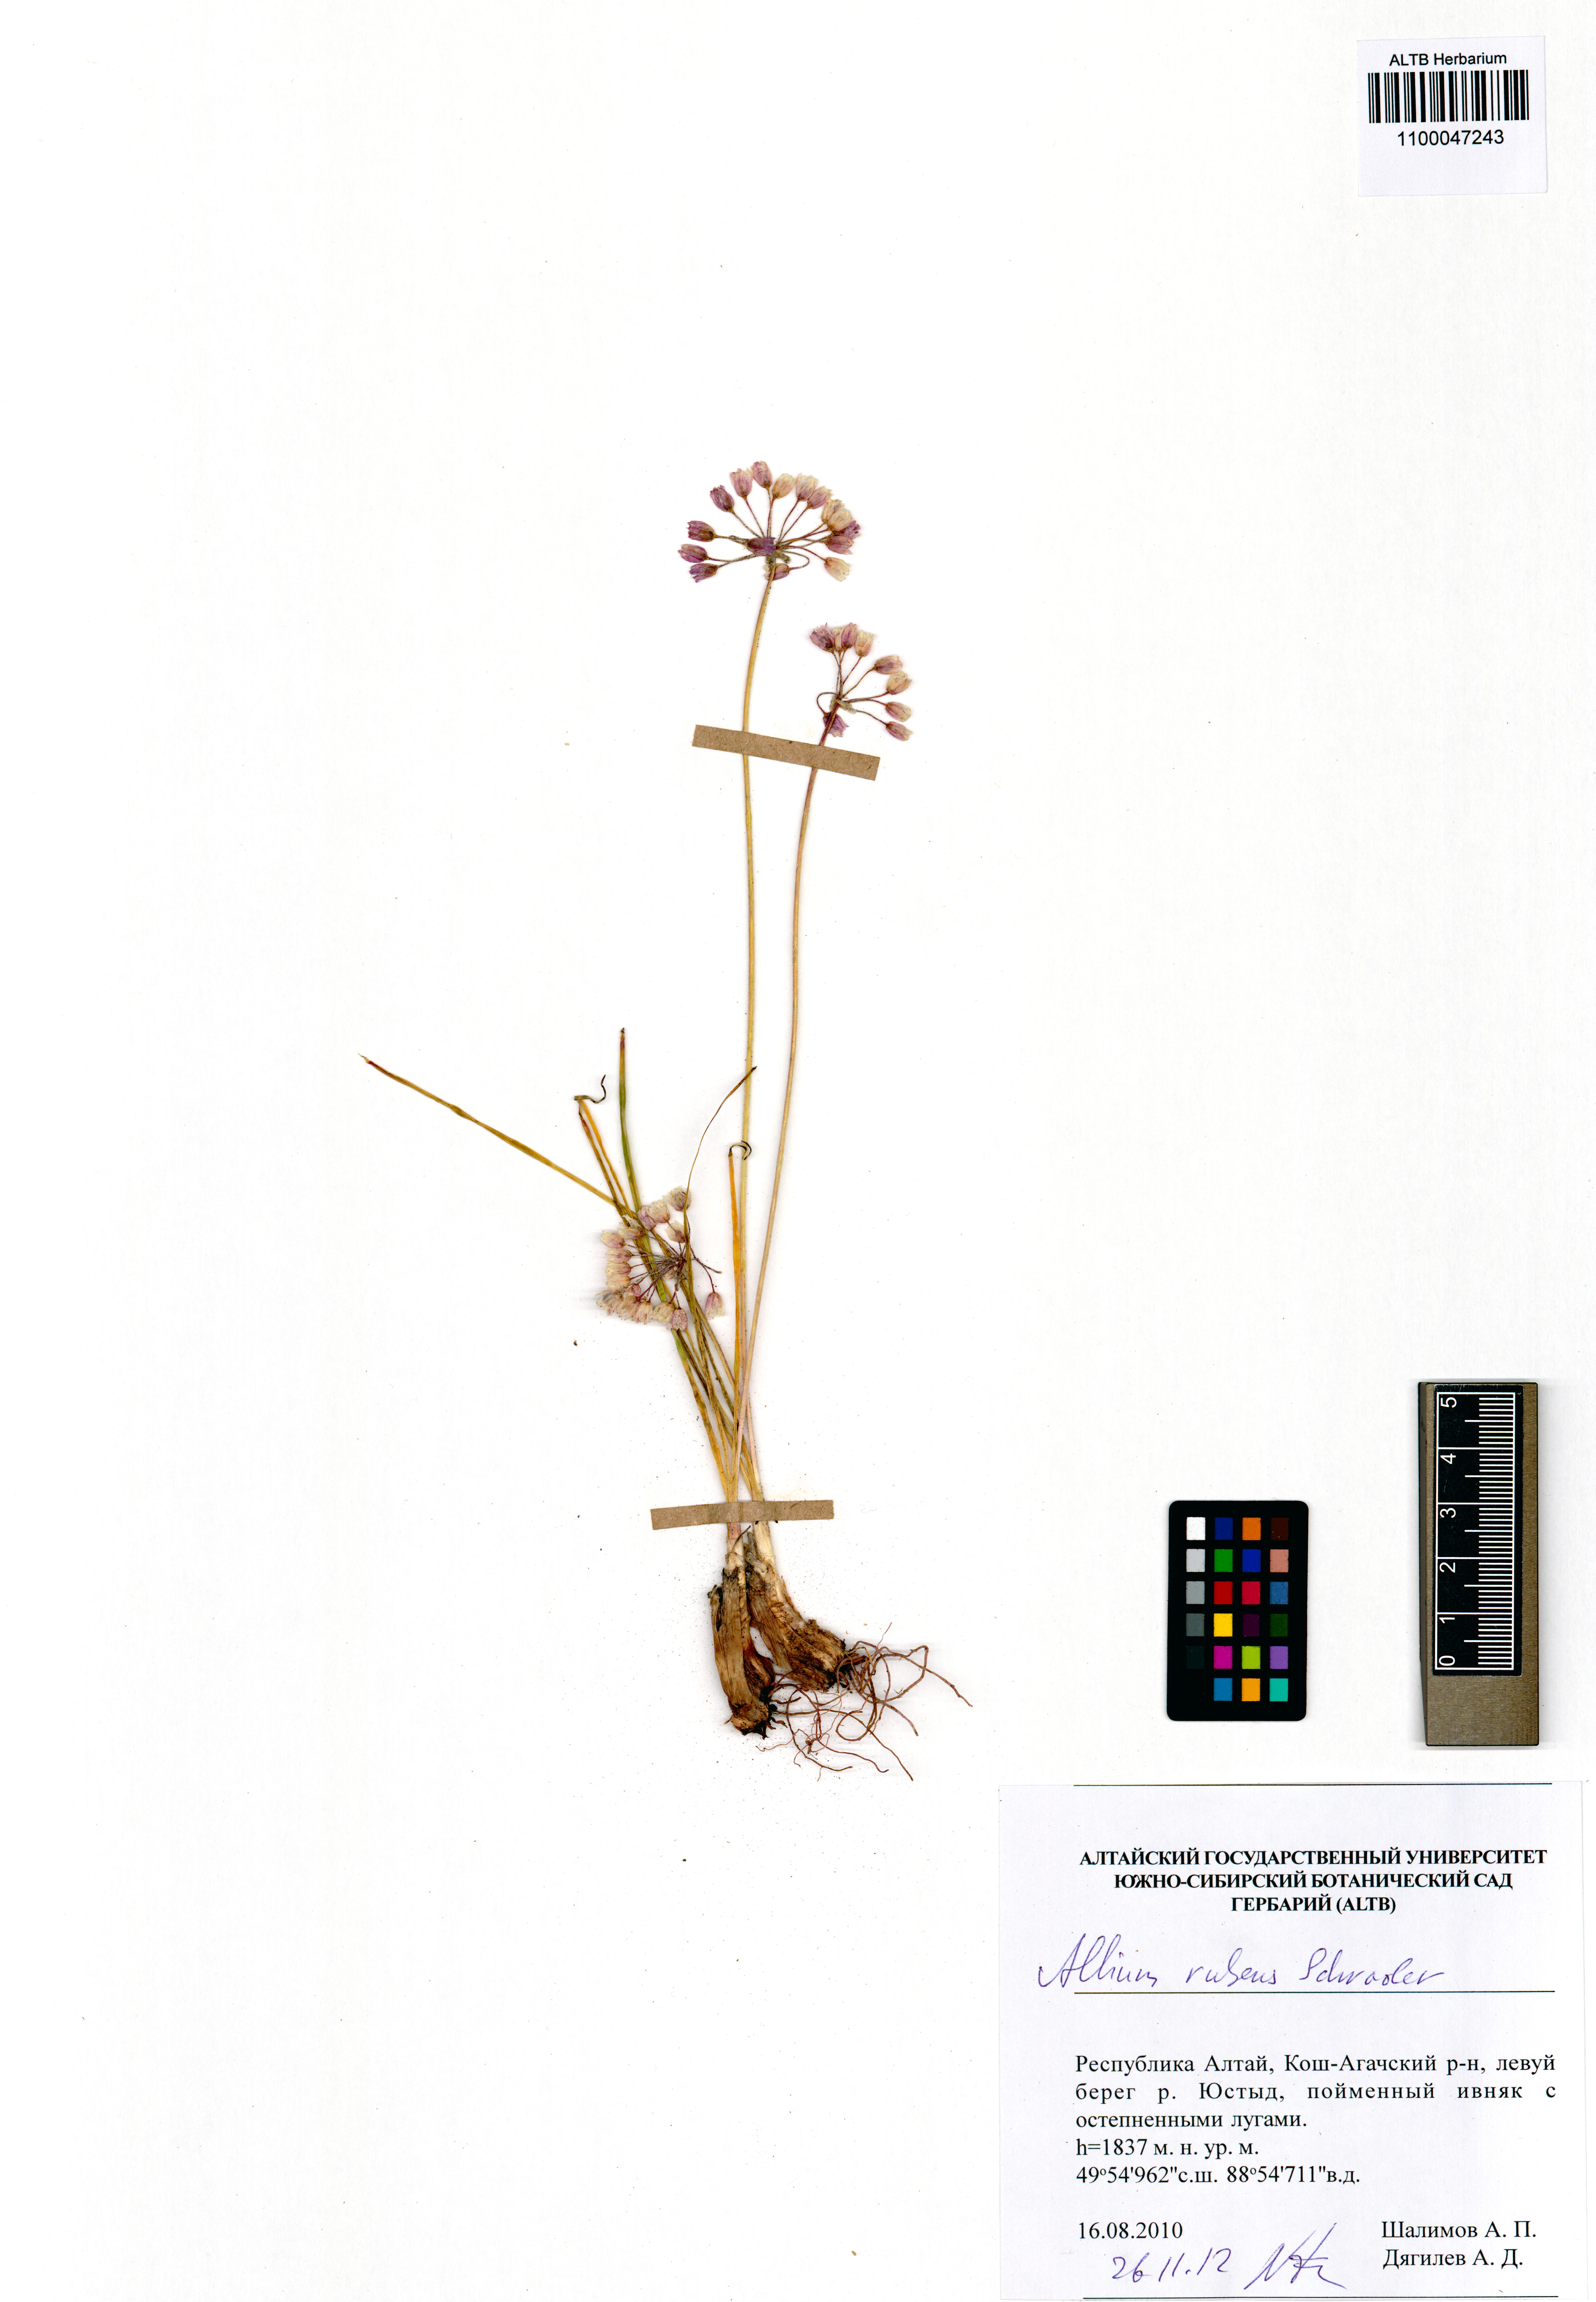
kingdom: Plantae
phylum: Tracheophyta
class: Liliopsida
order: Asparagales
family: Amaryllidaceae
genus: Allium
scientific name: Allium rubens
